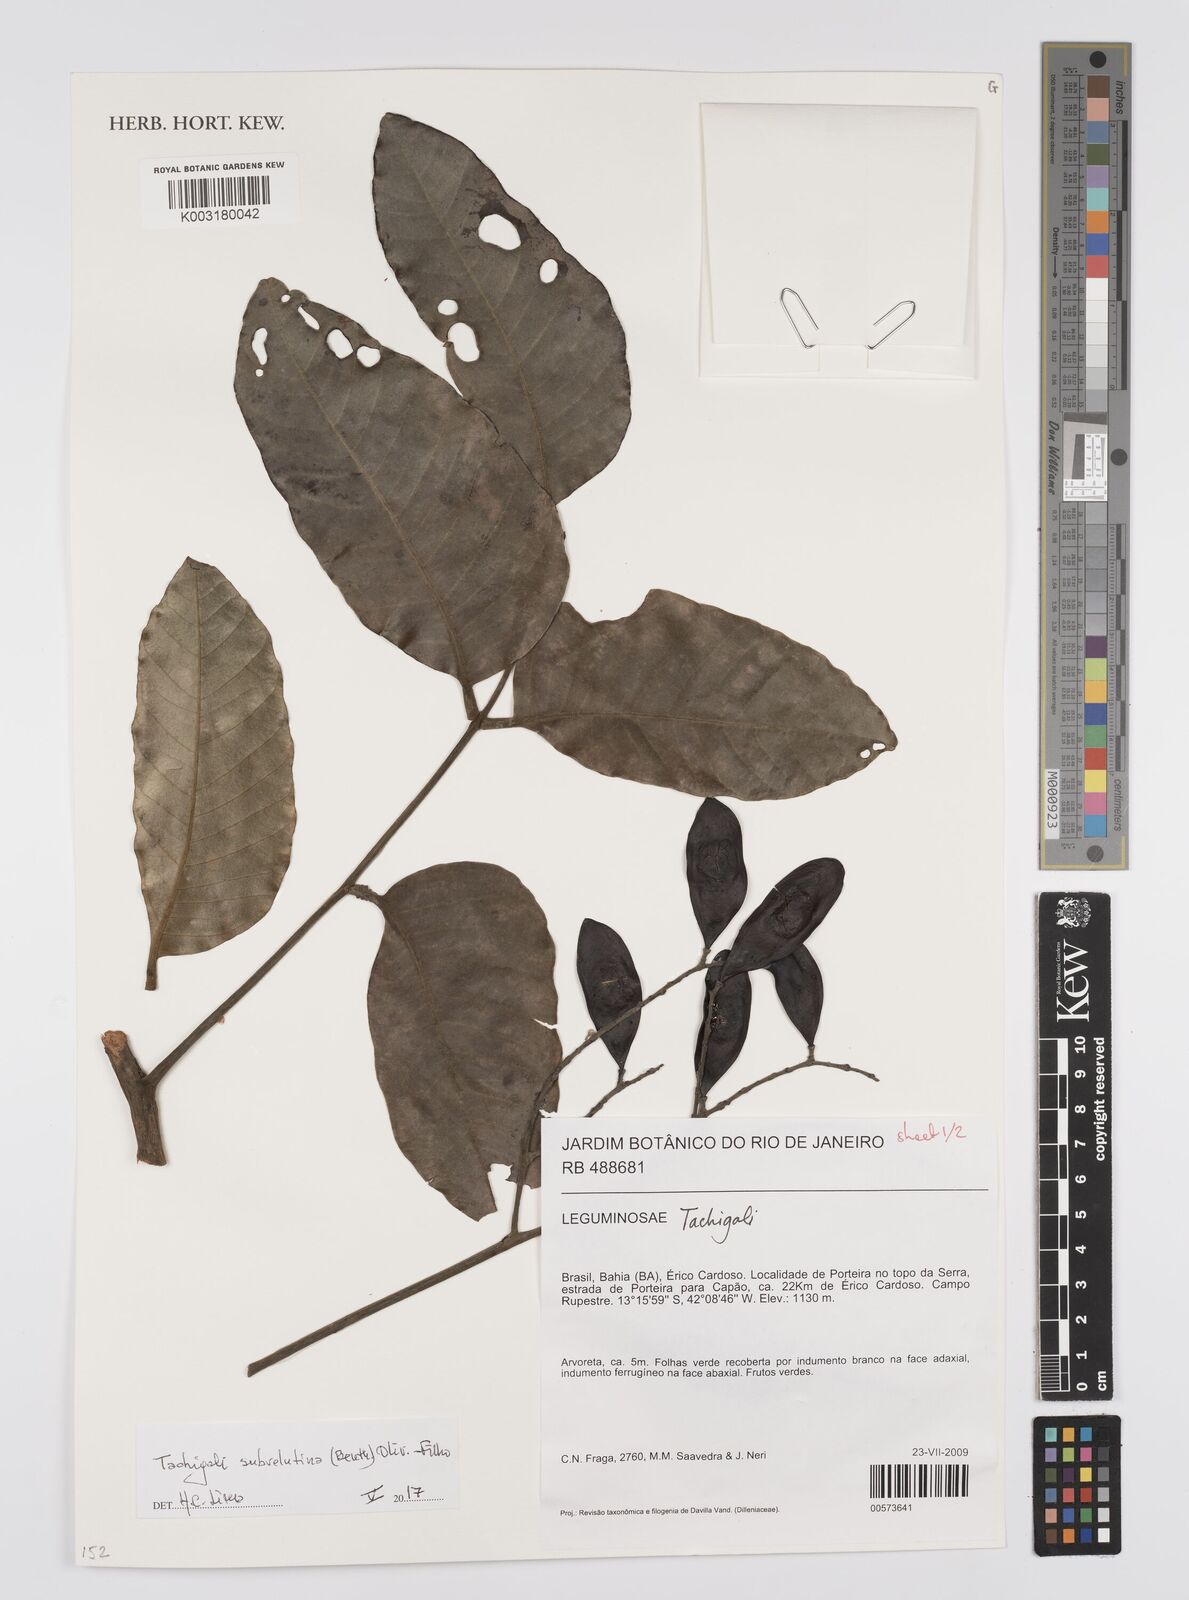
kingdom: Plantae
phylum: Tracheophyta
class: Magnoliopsida
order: Fabales
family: Fabaceae
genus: Tachigali
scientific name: Tachigali subvelutina
